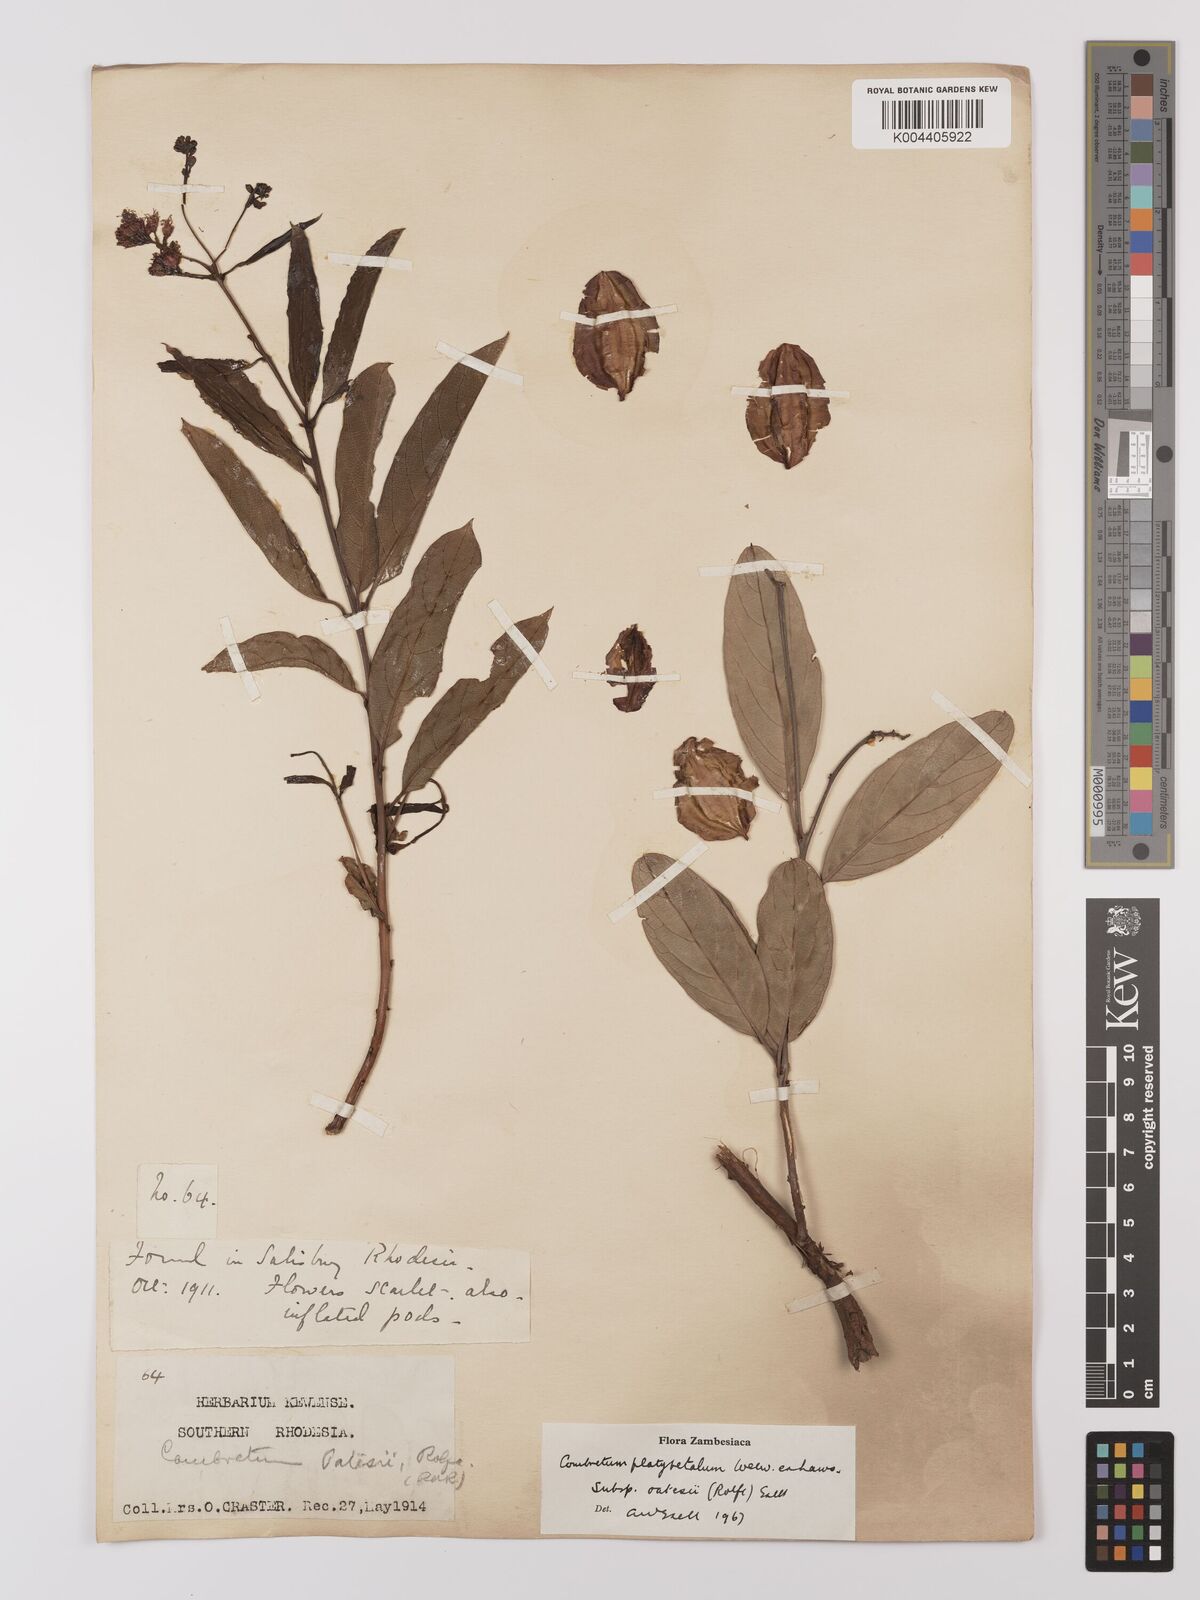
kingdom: Plantae
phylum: Tracheophyta
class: Magnoliopsida
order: Myrtales
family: Combretaceae
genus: Combretum
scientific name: Combretum platypetalum
